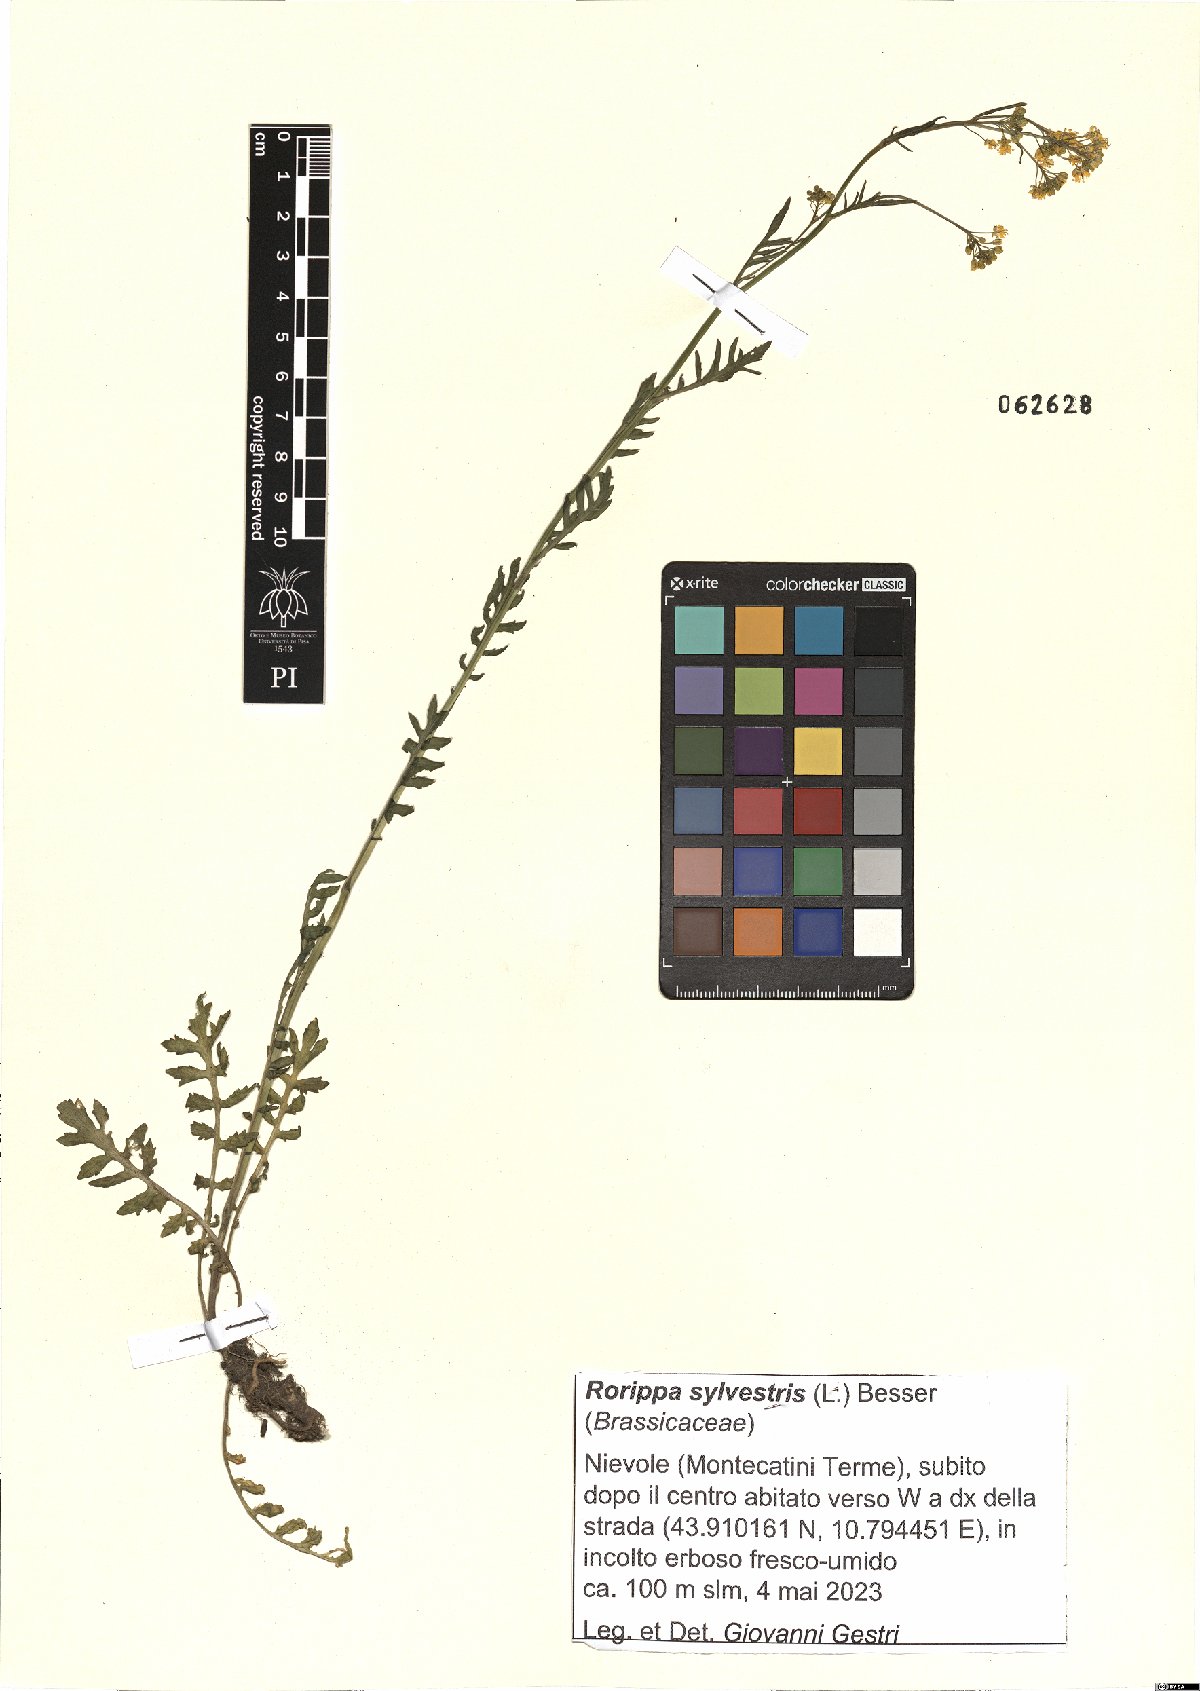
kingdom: Plantae
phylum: Tracheophyta
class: Magnoliopsida
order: Brassicales
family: Brassicaceae
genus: Rorippa
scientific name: Rorippa sylvestris
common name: Creeping yellowcress
